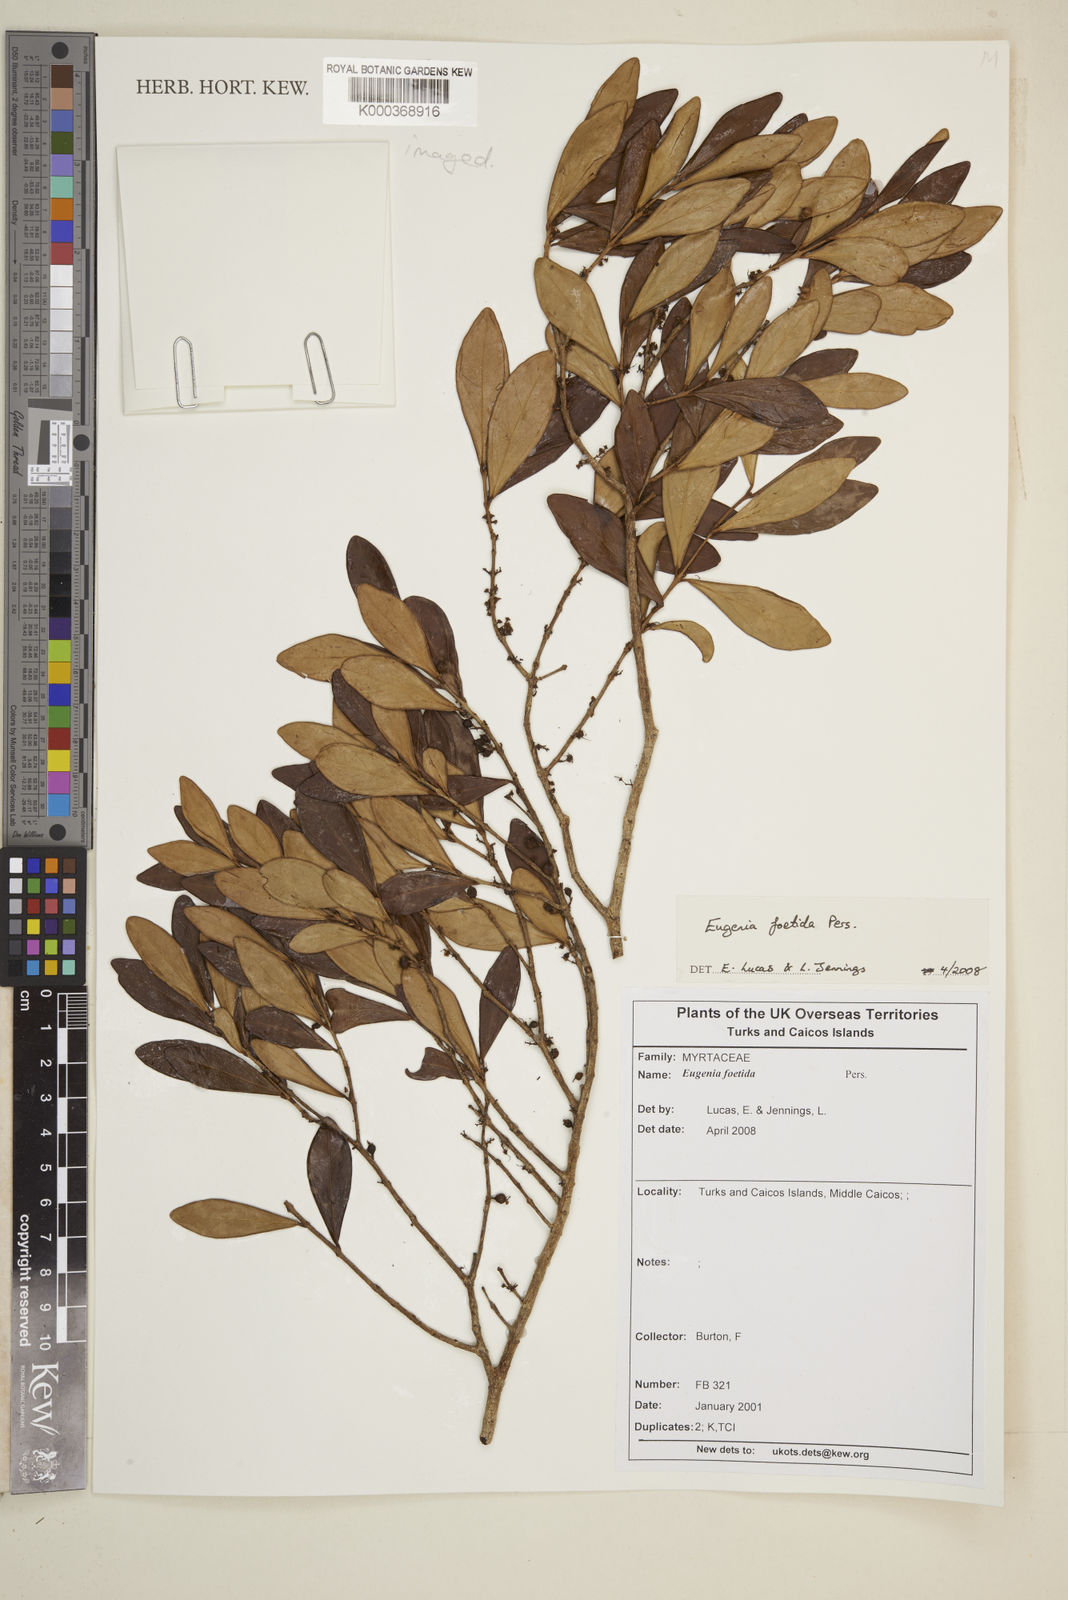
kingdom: Plantae
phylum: Tracheophyta
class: Magnoliopsida
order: Myrtales
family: Myrtaceae
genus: Eugenia
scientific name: Eugenia foetida
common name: White wattling
